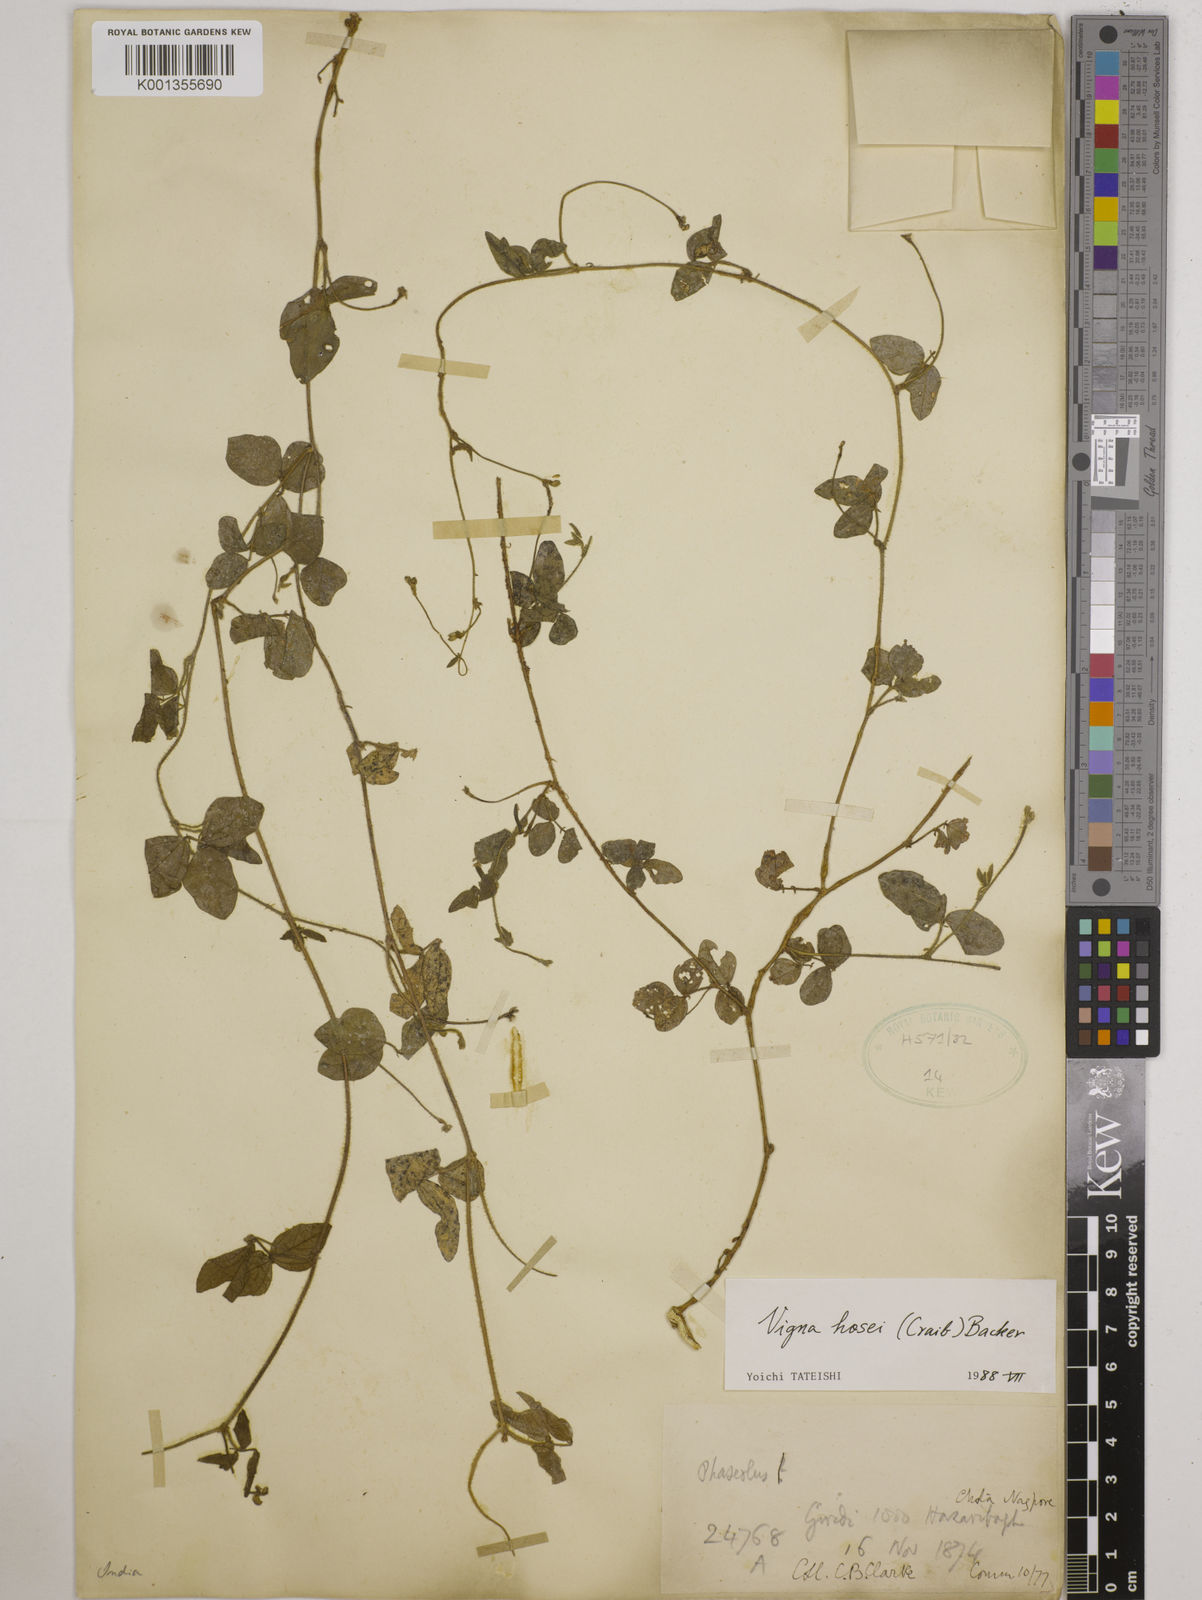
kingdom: Plantae
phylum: Tracheophyta
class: Magnoliopsida
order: Fabales
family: Fabaceae
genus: Vigna
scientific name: Vigna hosei
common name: Sarawak-bean
